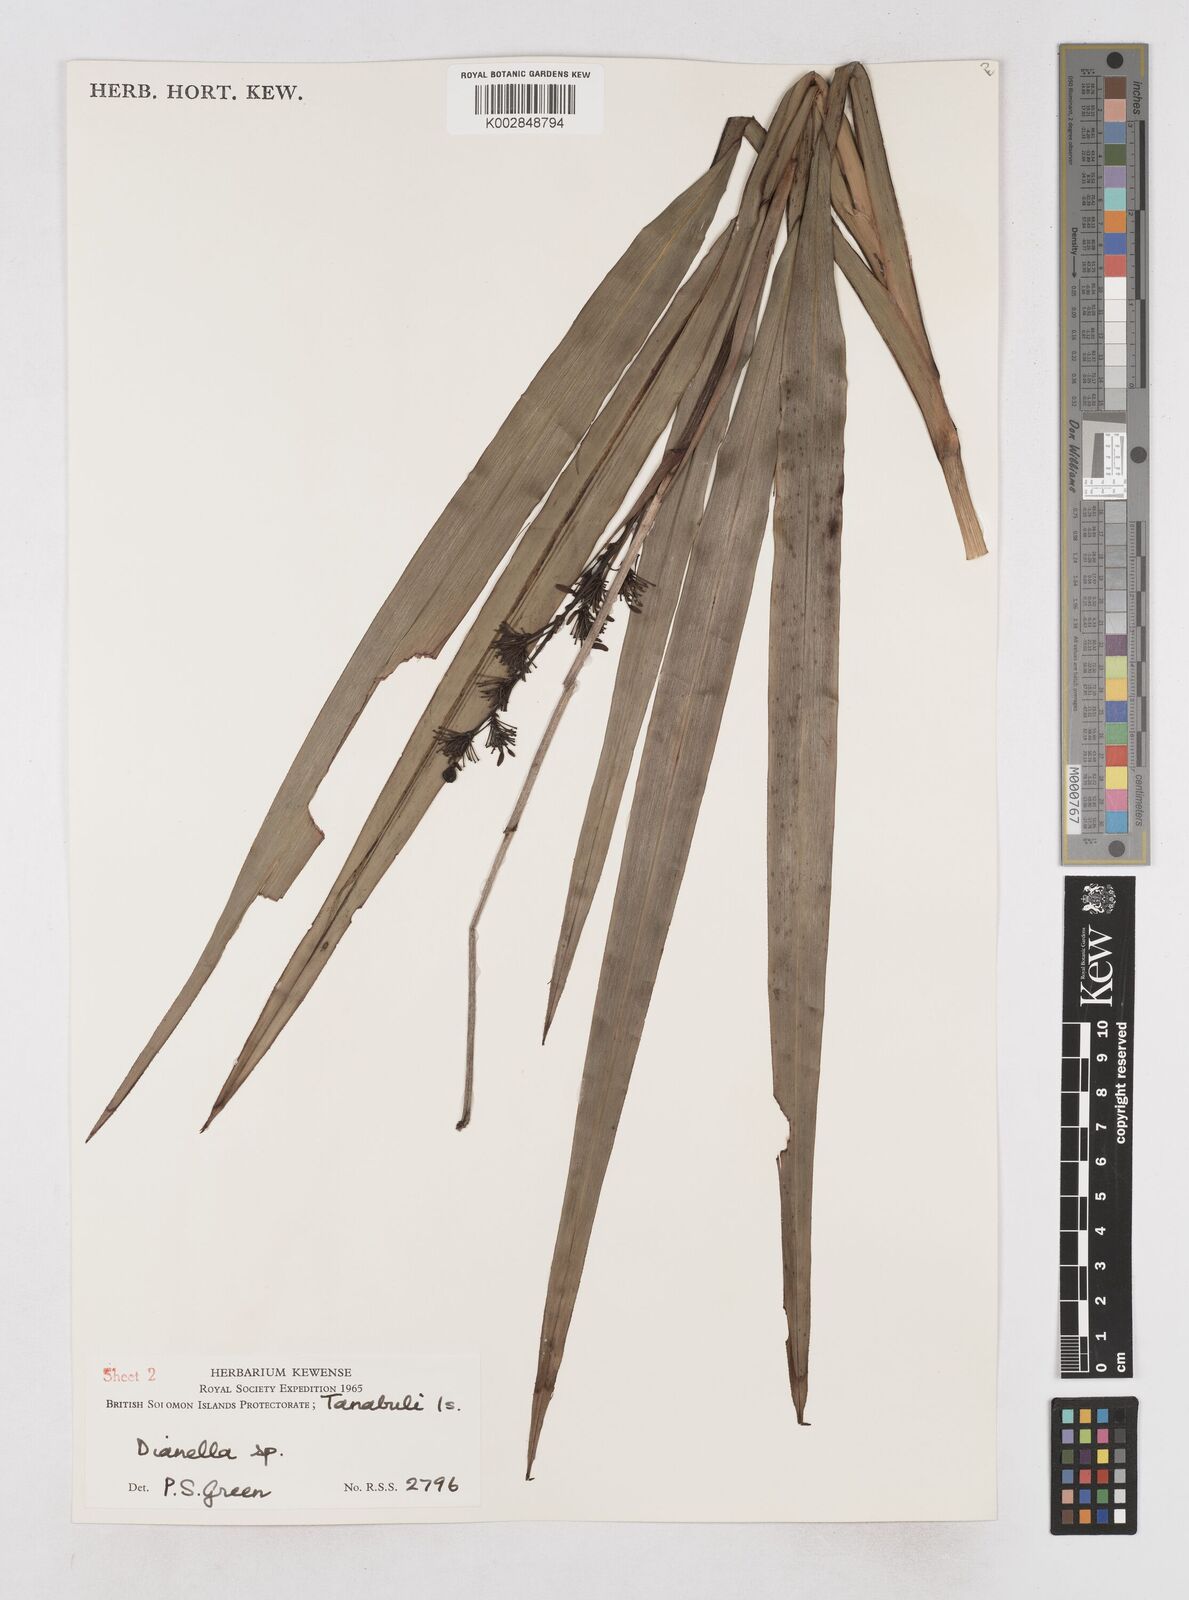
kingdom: Plantae
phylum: Tracheophyta
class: Liliopsida
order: Asparagales
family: Asphodelaceae
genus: Dianella
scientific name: Dianella
